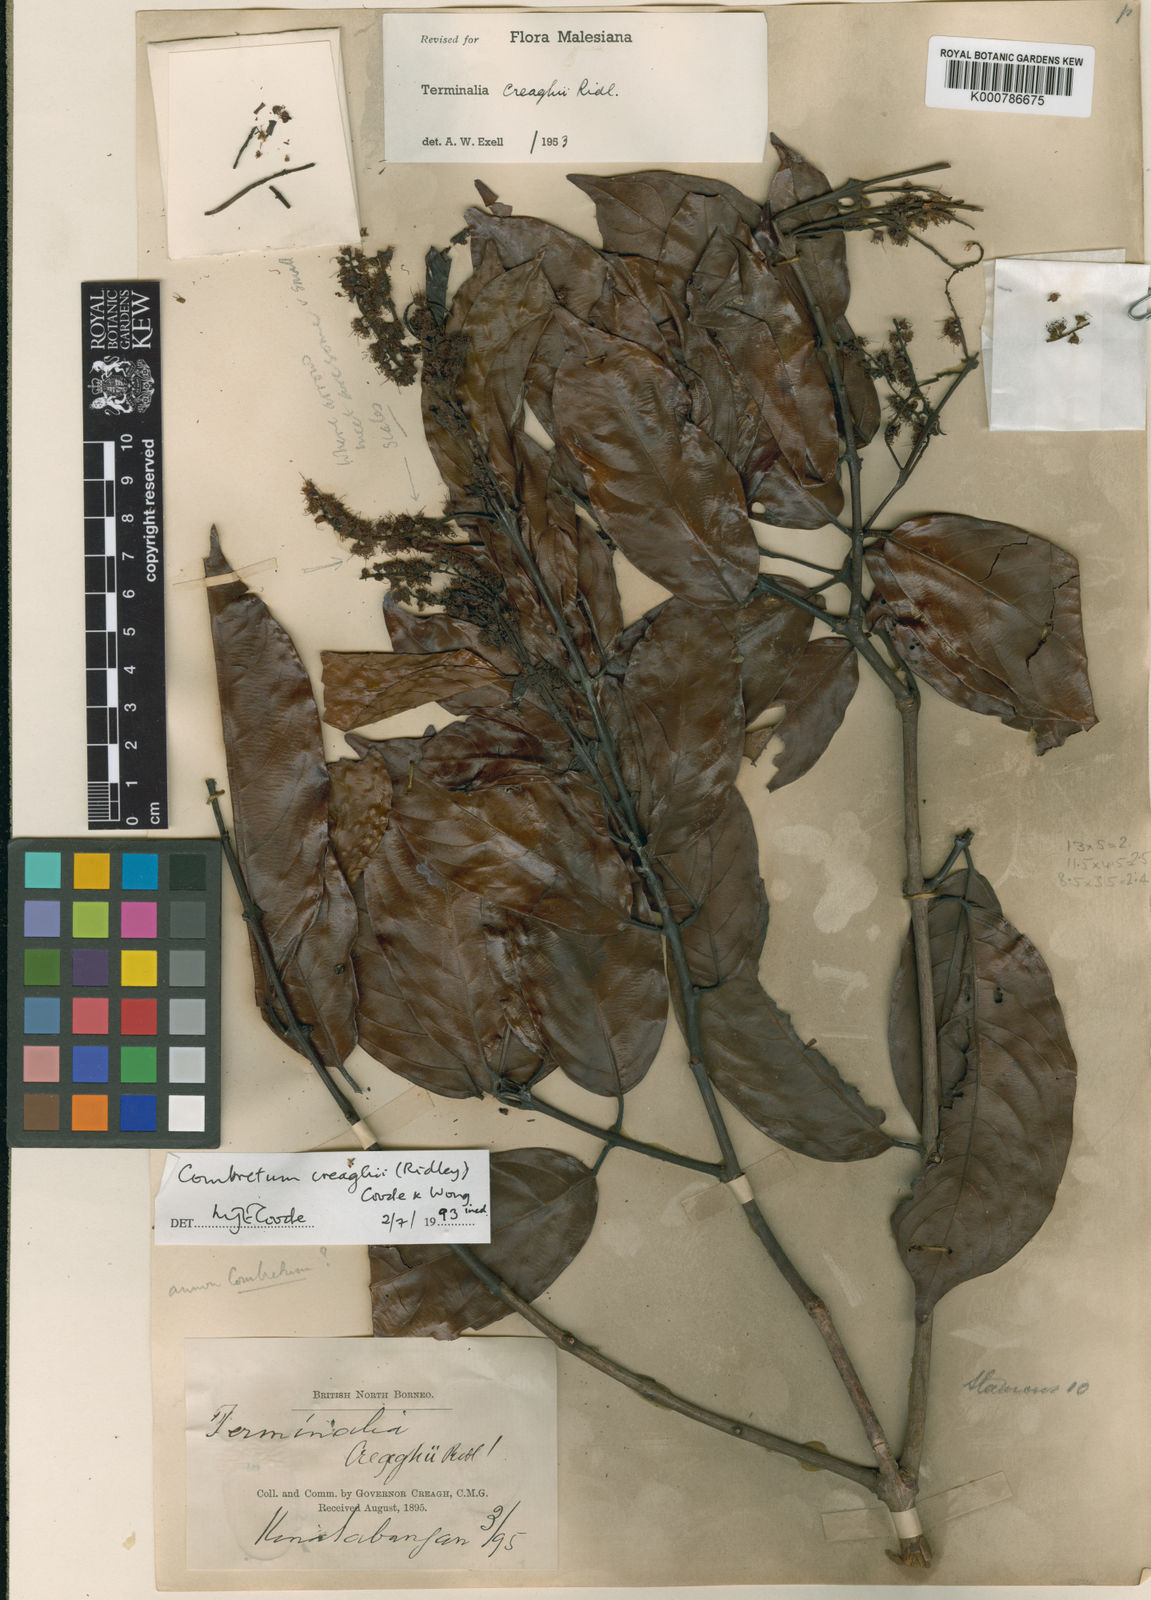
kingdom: Plantae
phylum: Tracheophyta
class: Magnoliopsida
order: Myrtales
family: Combretaceae
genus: Combretum
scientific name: Combretum
